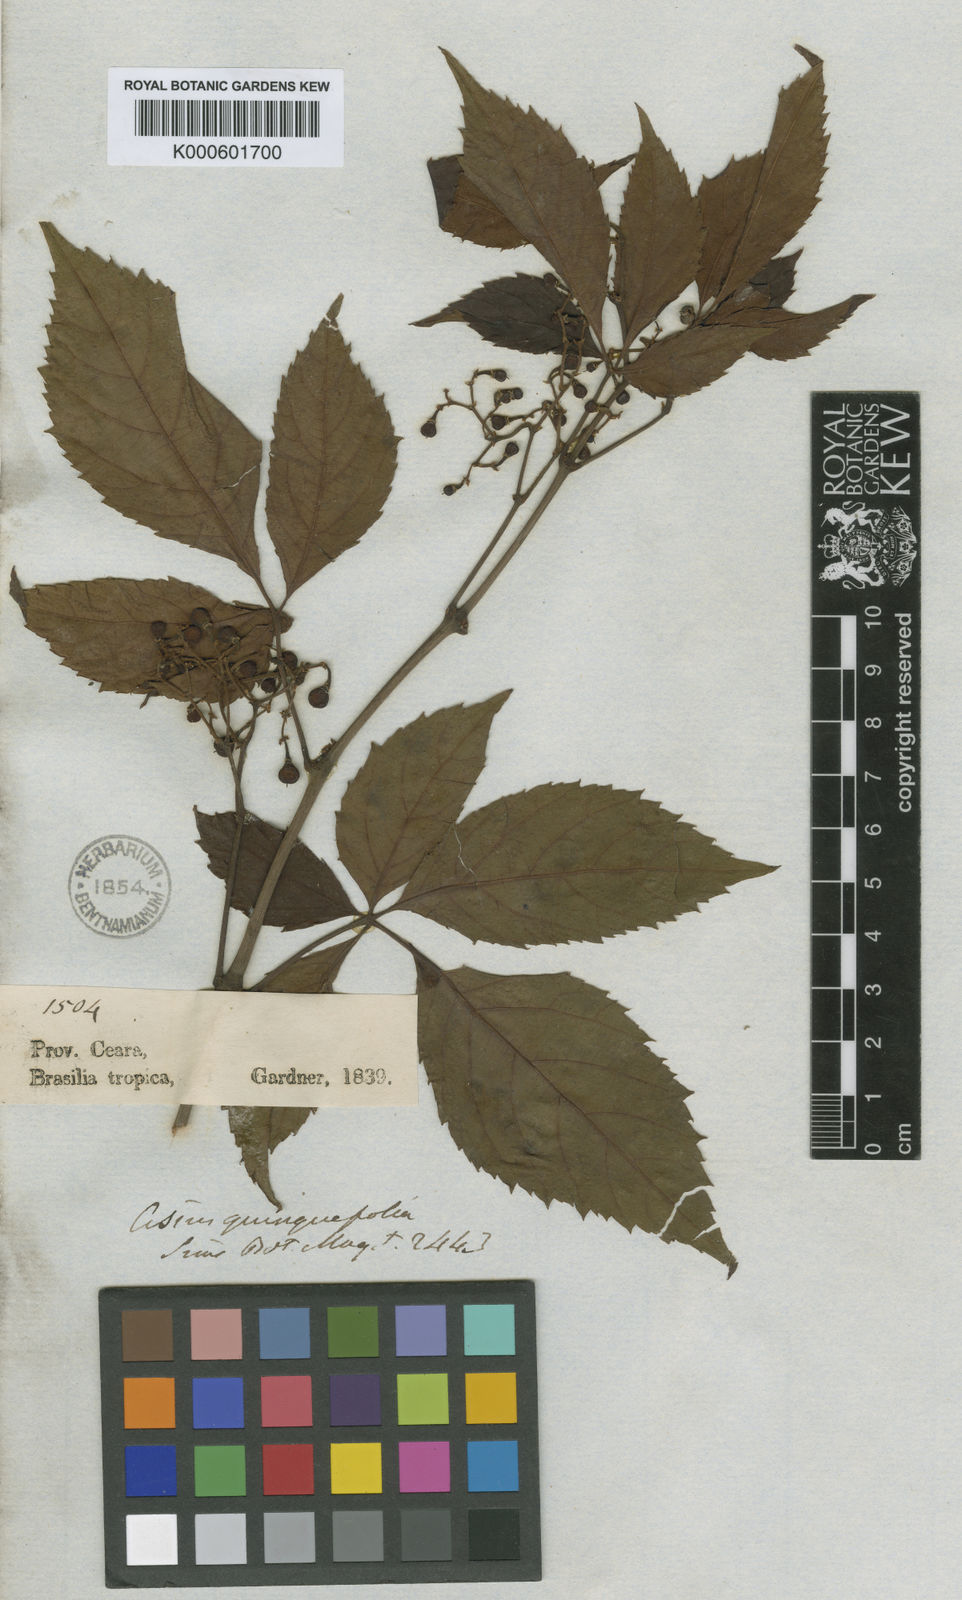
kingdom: Plantae
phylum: Tracheophyta
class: Magnoliopsida
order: Vitales
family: Vitaceae
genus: Cissus
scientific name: Cissus
